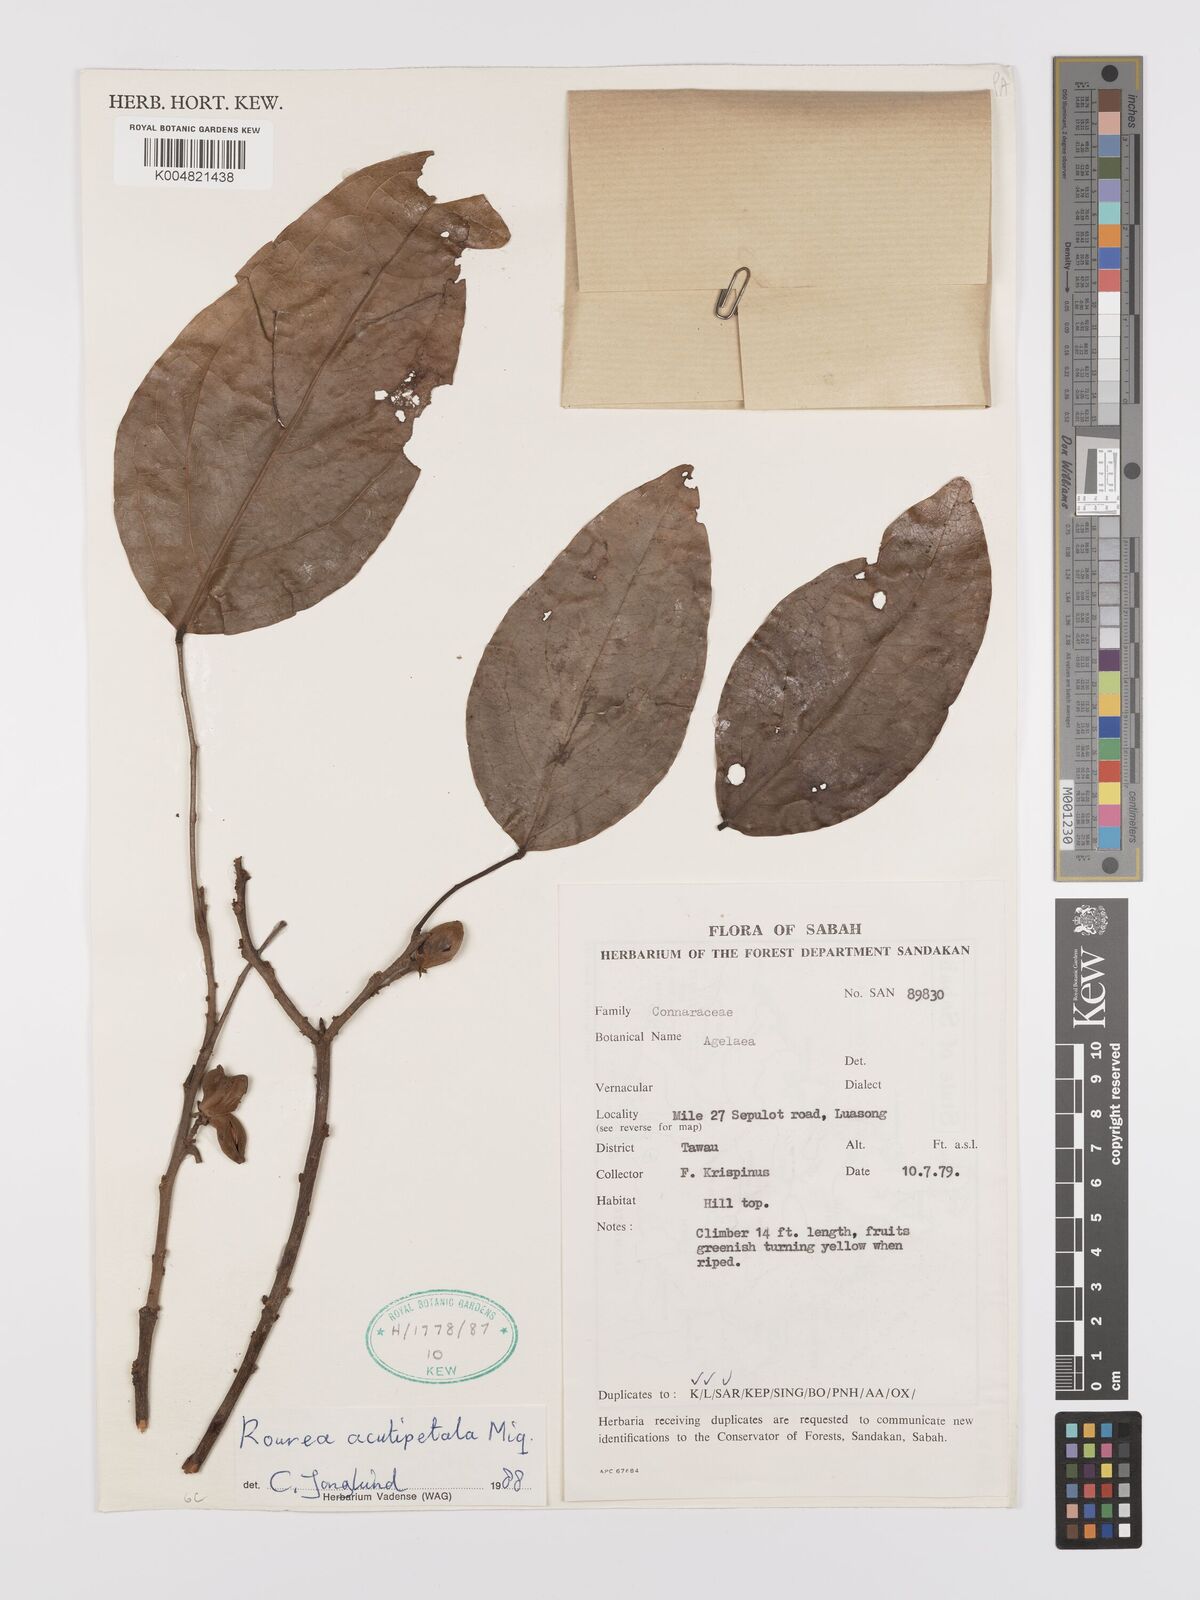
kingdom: Plantae
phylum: Tracheophyta
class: Magnoliopsida
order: Oxalidales
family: Connaraceae
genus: Rourea
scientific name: Rourea acutipetala
